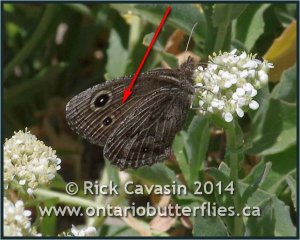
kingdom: Animalia
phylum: Arthropoda
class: Insecta
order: Lepidoptera
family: Nymphalidae
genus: Cercyonis
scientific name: Cercyonis oetus
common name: Small Wood-Nymph
